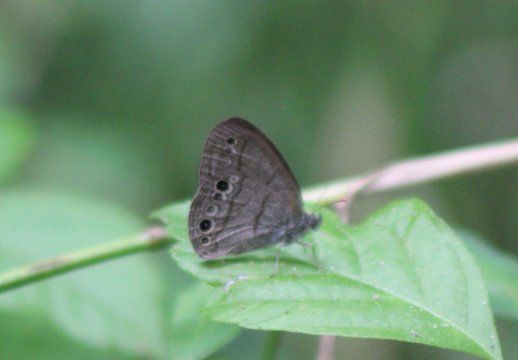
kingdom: Animalia
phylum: Arthropoda
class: Insecta
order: Lepidoptera
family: Nymphalidae
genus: Hermeuptychia
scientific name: Hermeuptychia hermes
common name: Carolina Satyr
